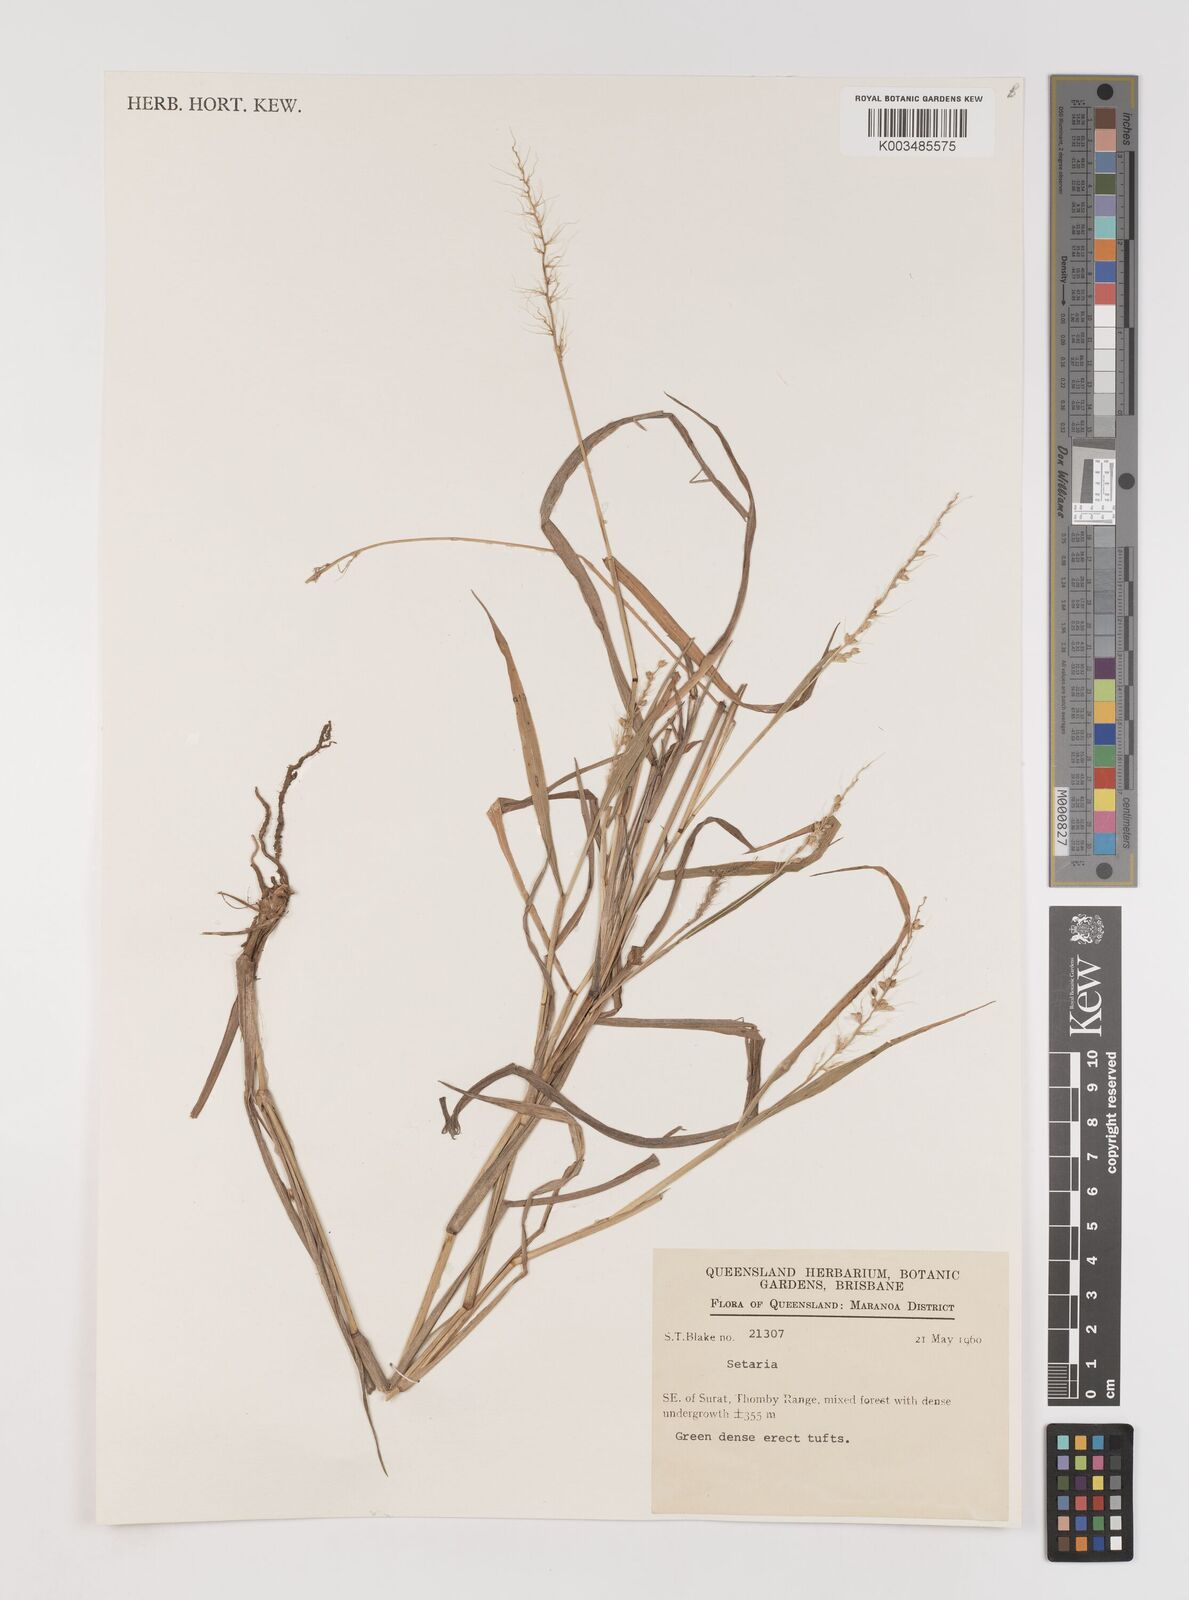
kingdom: Plantae
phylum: Tracheophyta
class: Liliopsida
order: Poales
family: Poaceae
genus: Setaria
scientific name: Setaria
